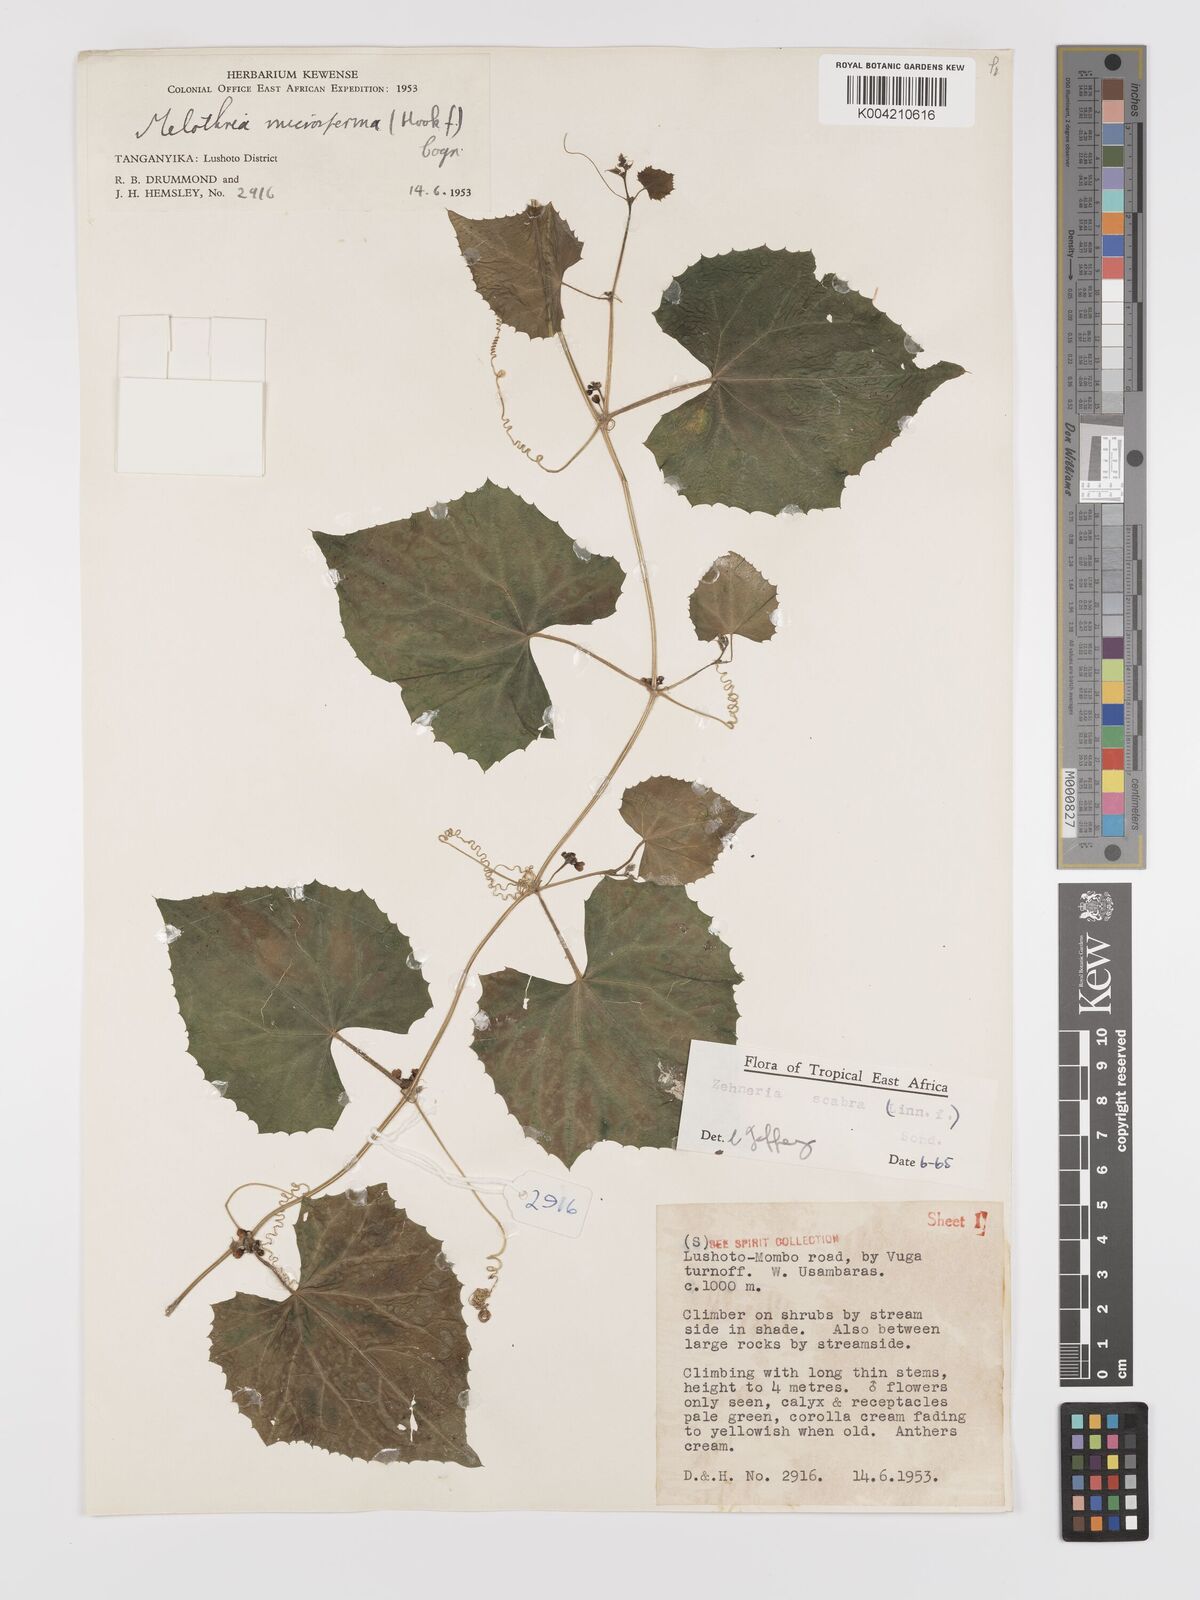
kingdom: Plantae
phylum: Tracheophyta
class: Magnoliopsida
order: Cucurbitales
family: Cucurbitaceae
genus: Zehneria
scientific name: Zehneria scabra
